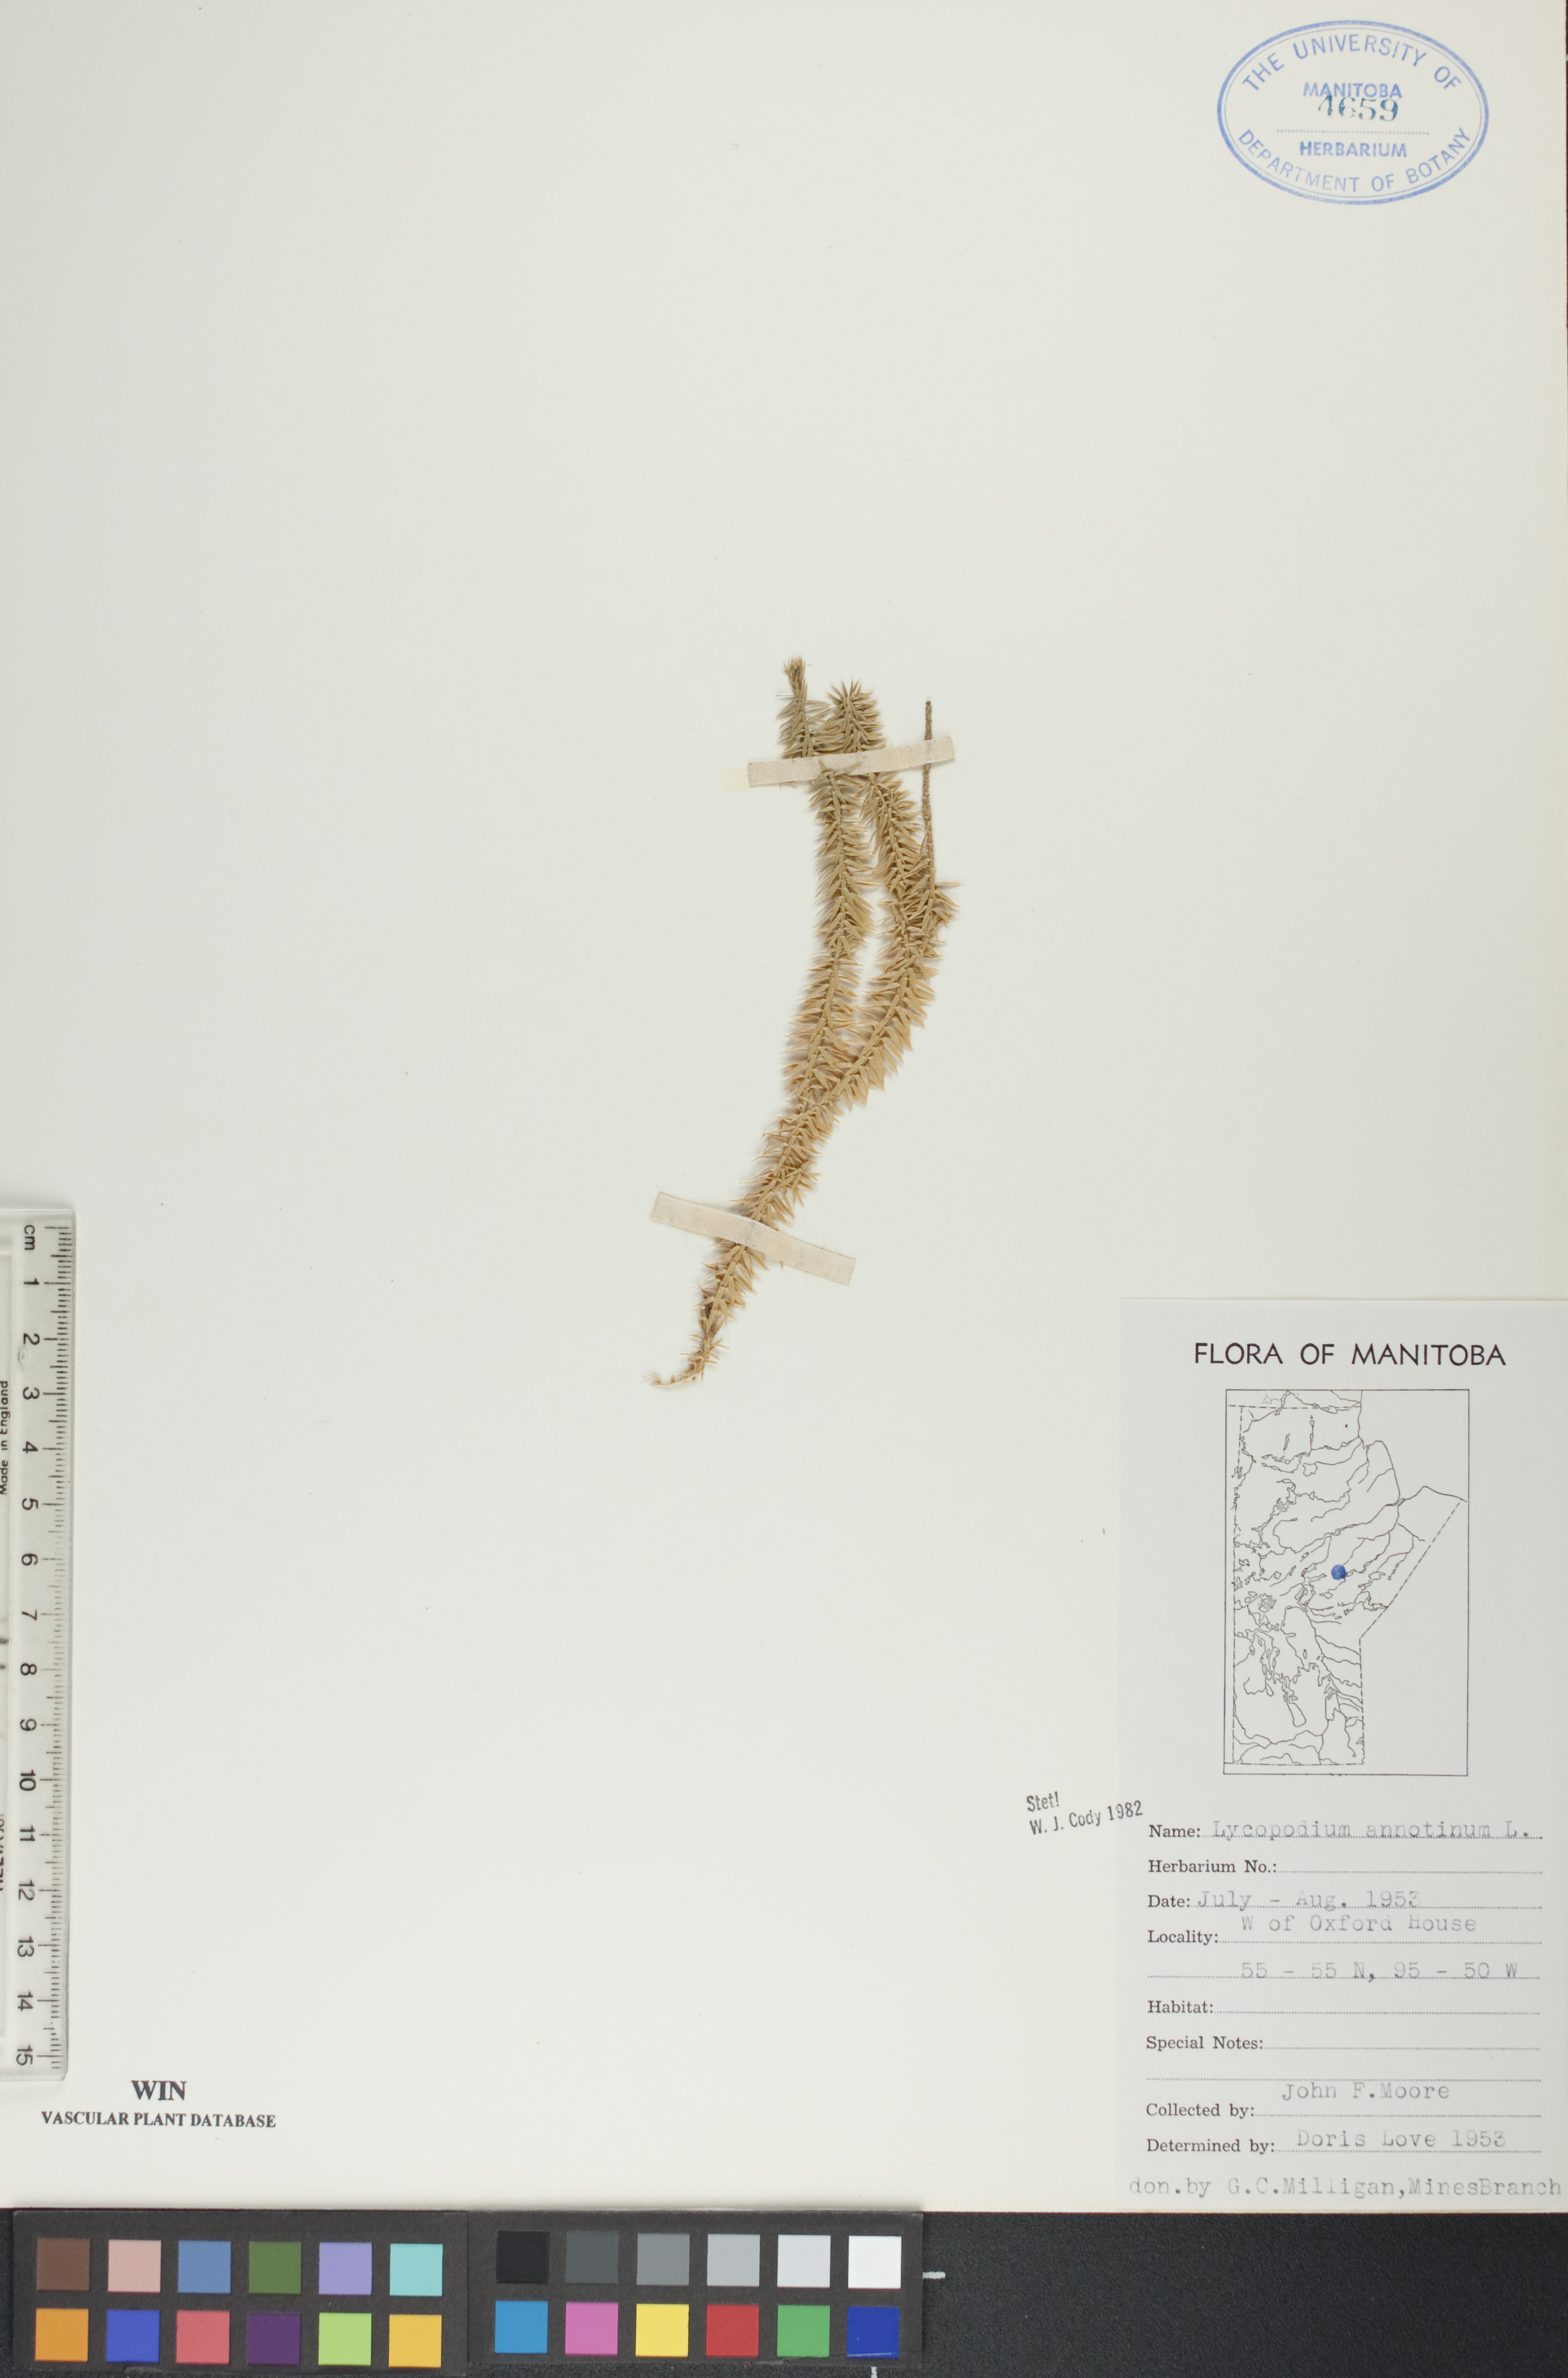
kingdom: Plantae
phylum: Tracheophyta
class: Lycopodiopsida
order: Lycopodiales
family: Lycopodiaceae
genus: Spinulum
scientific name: Spinulum annotinum
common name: Interrupted club-moss
